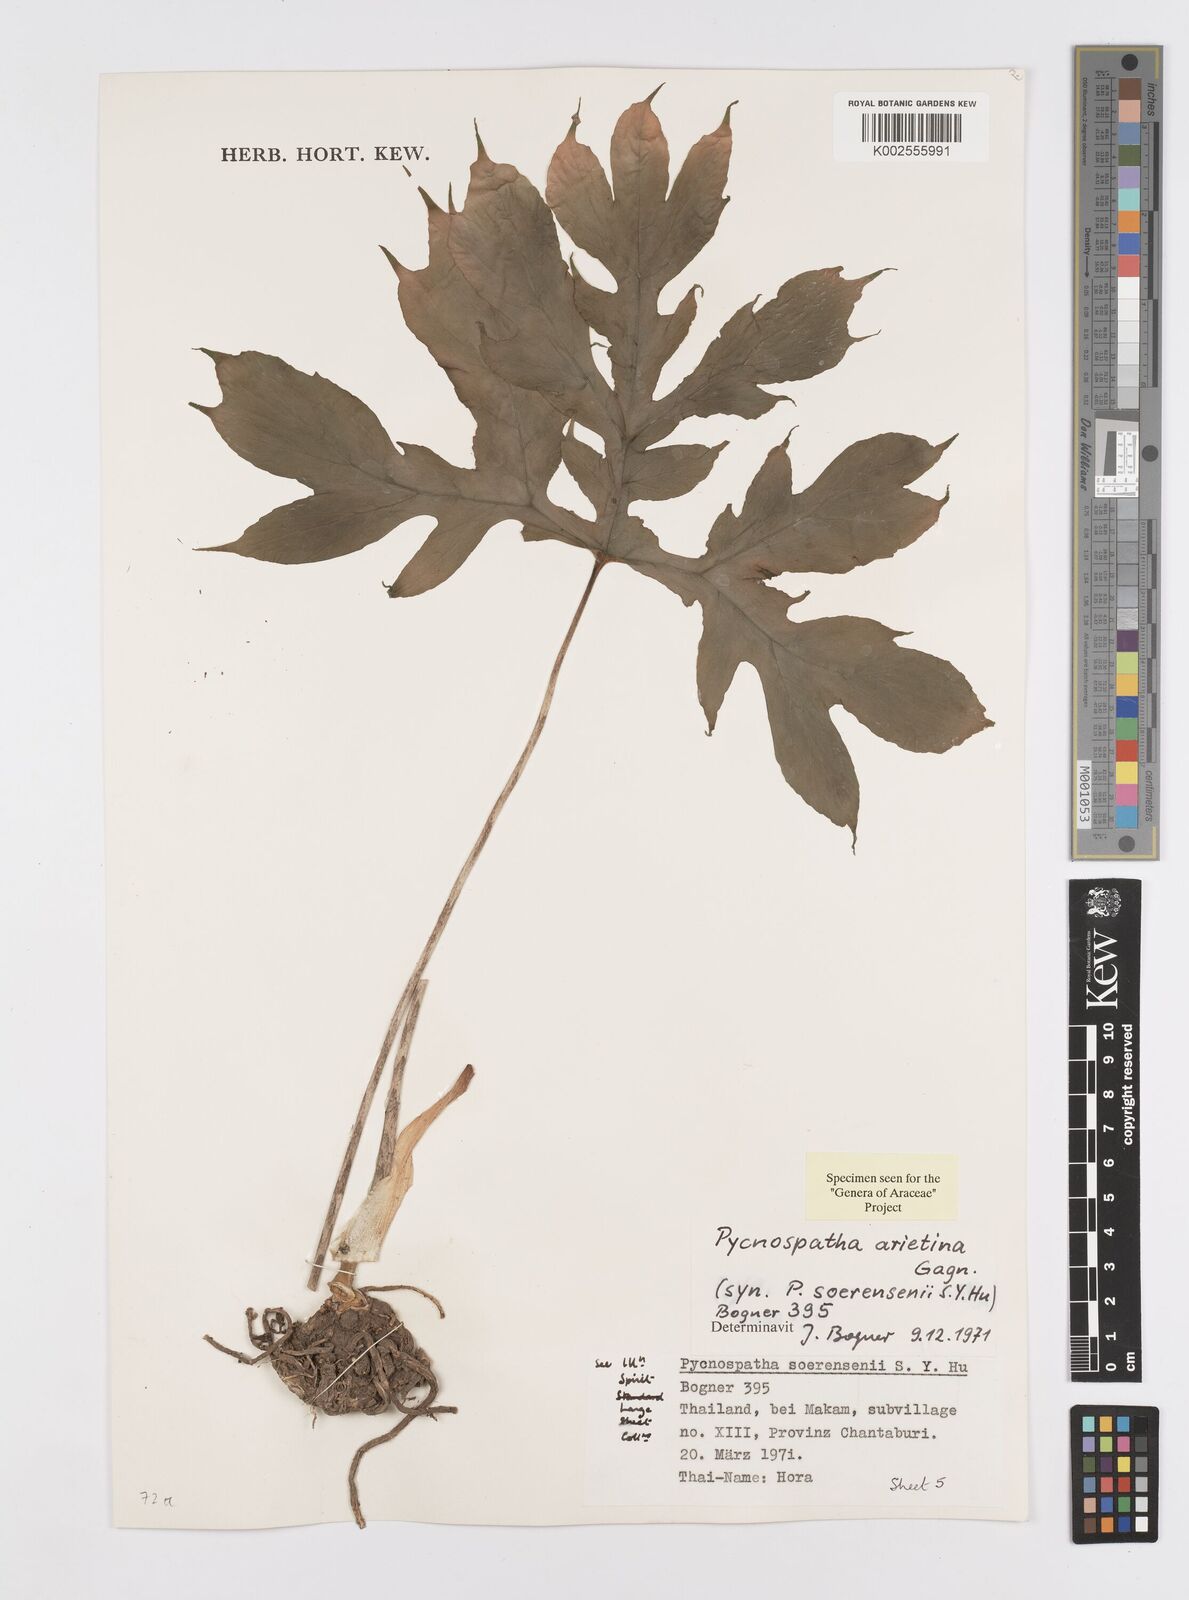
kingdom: Plantae
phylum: Tracheophyta
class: Liliopsida
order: Alismatales
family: Araceae
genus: Pycnospatha
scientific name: Pycnospatha arietina
